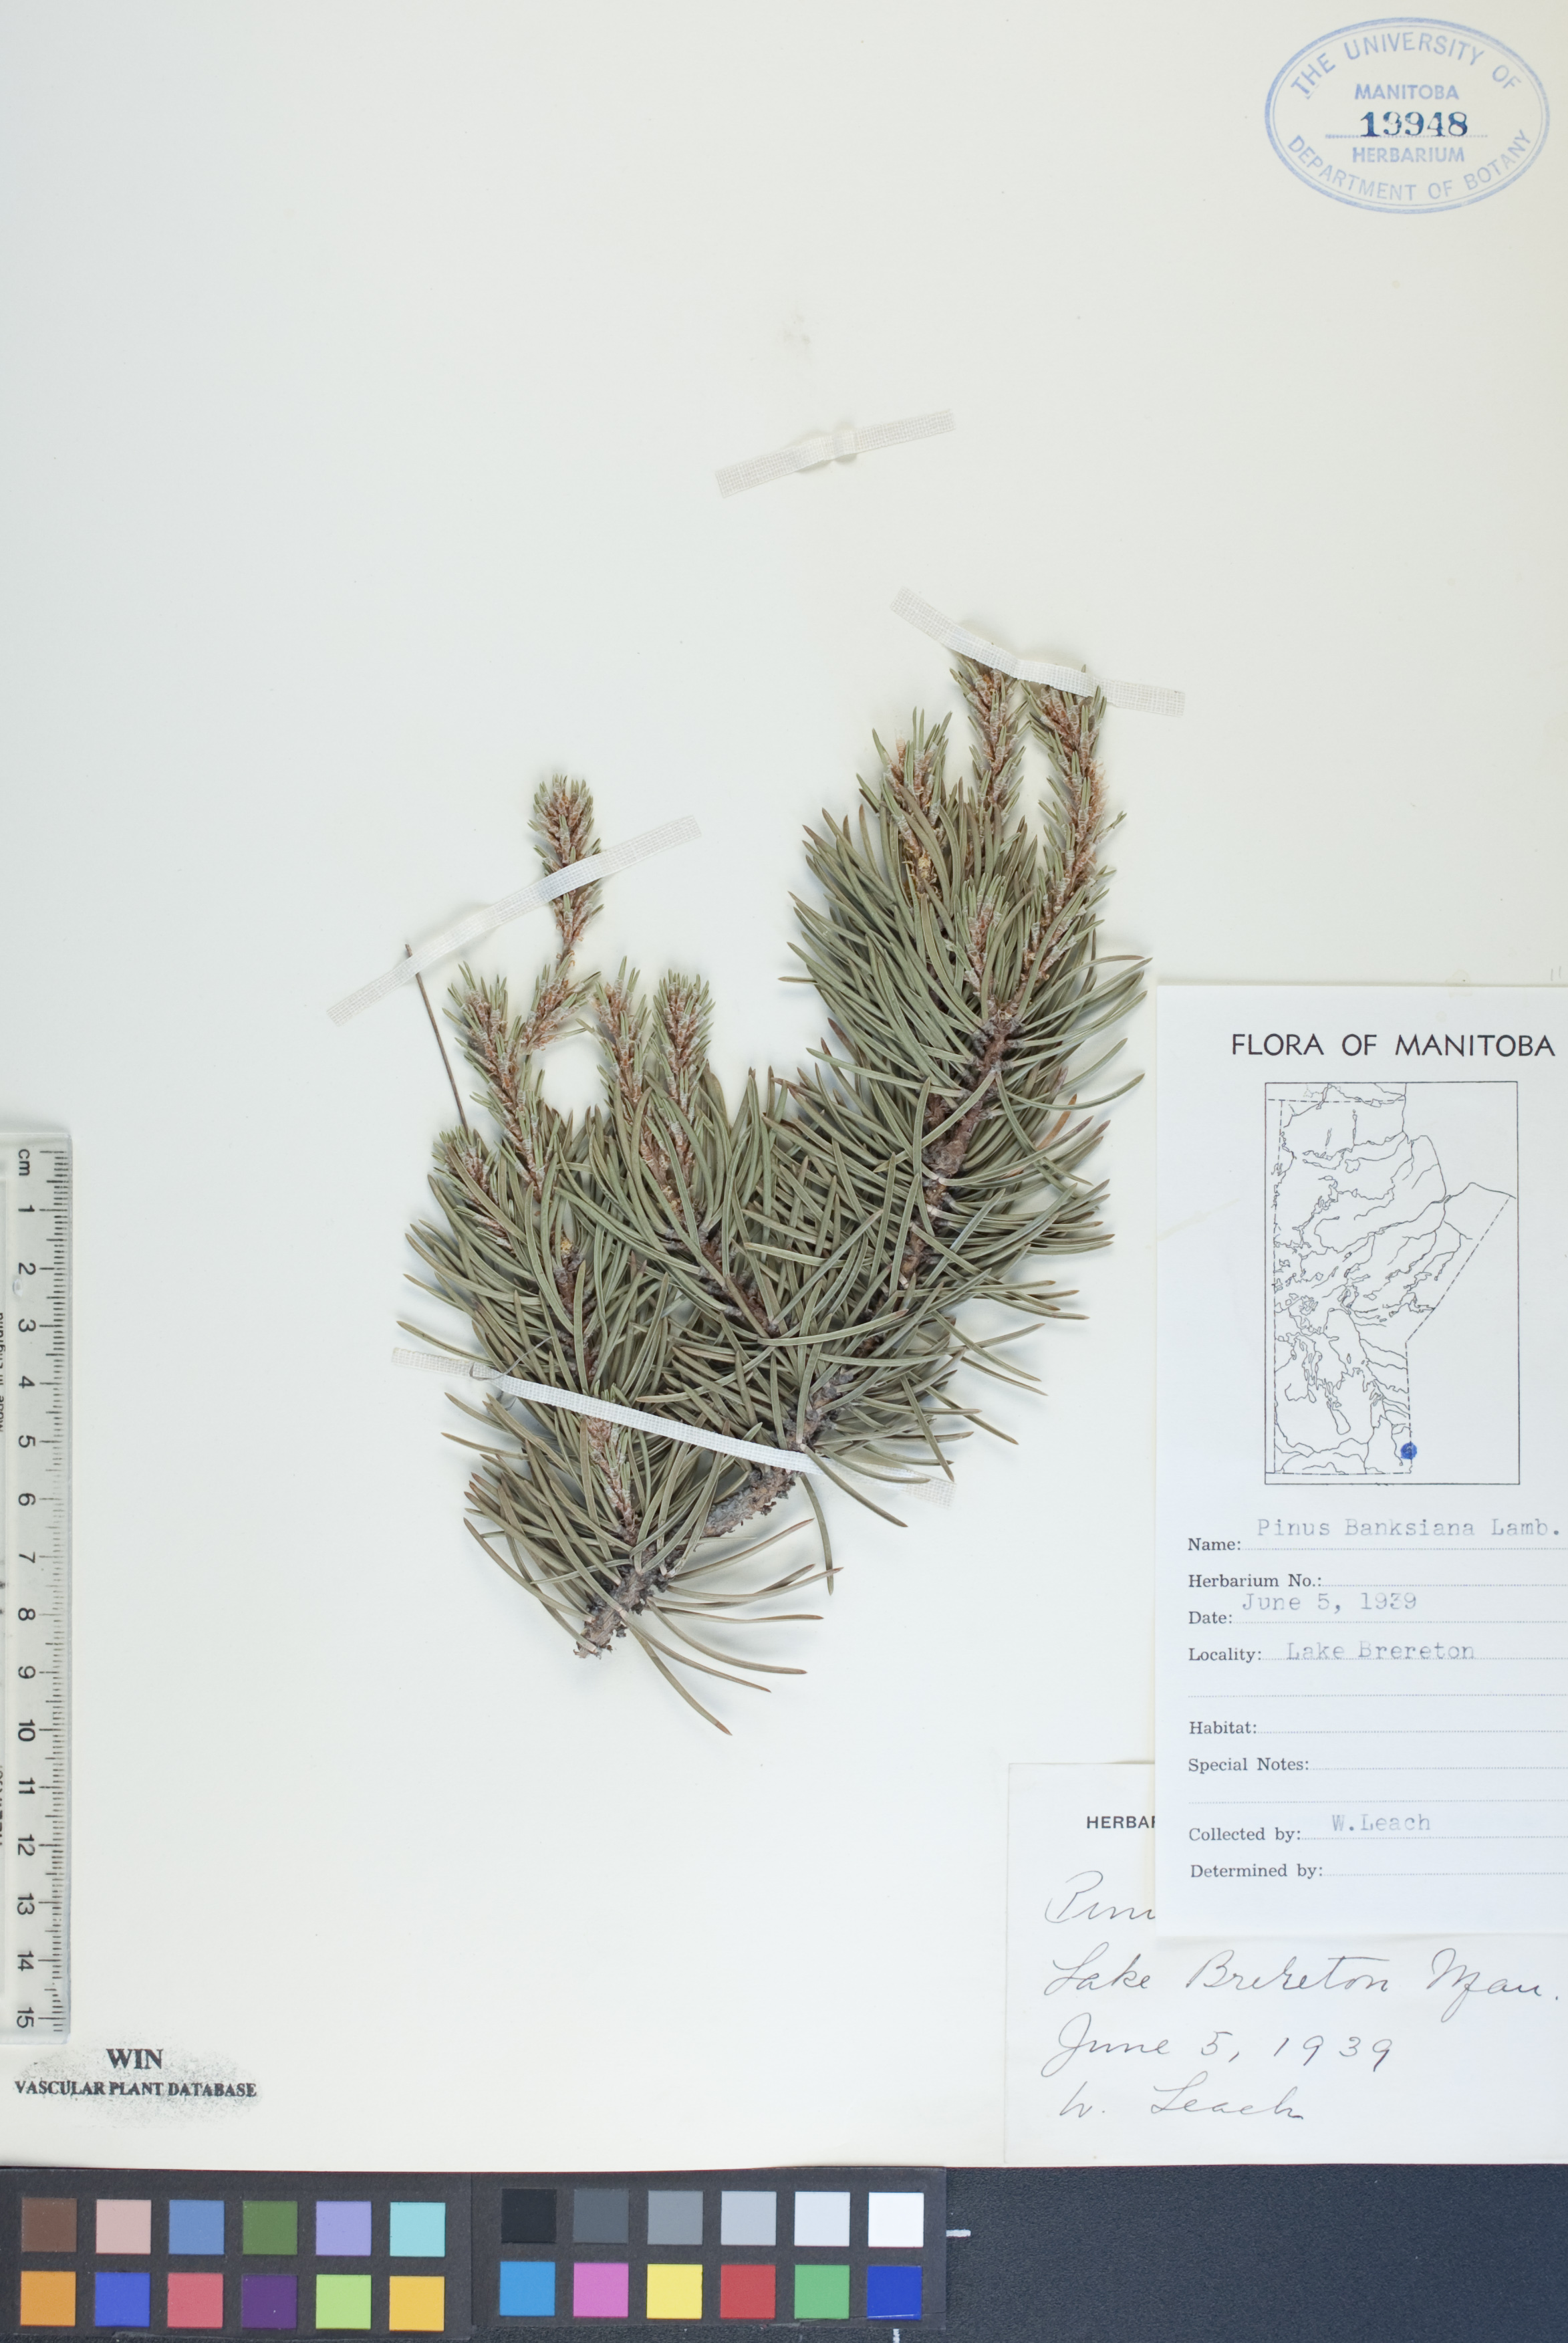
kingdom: Plantae
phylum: Tracheophyta
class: Pinopsida
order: Pinales
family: Pinaceae
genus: Pinus
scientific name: Pinus banksiana
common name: Jack pine
